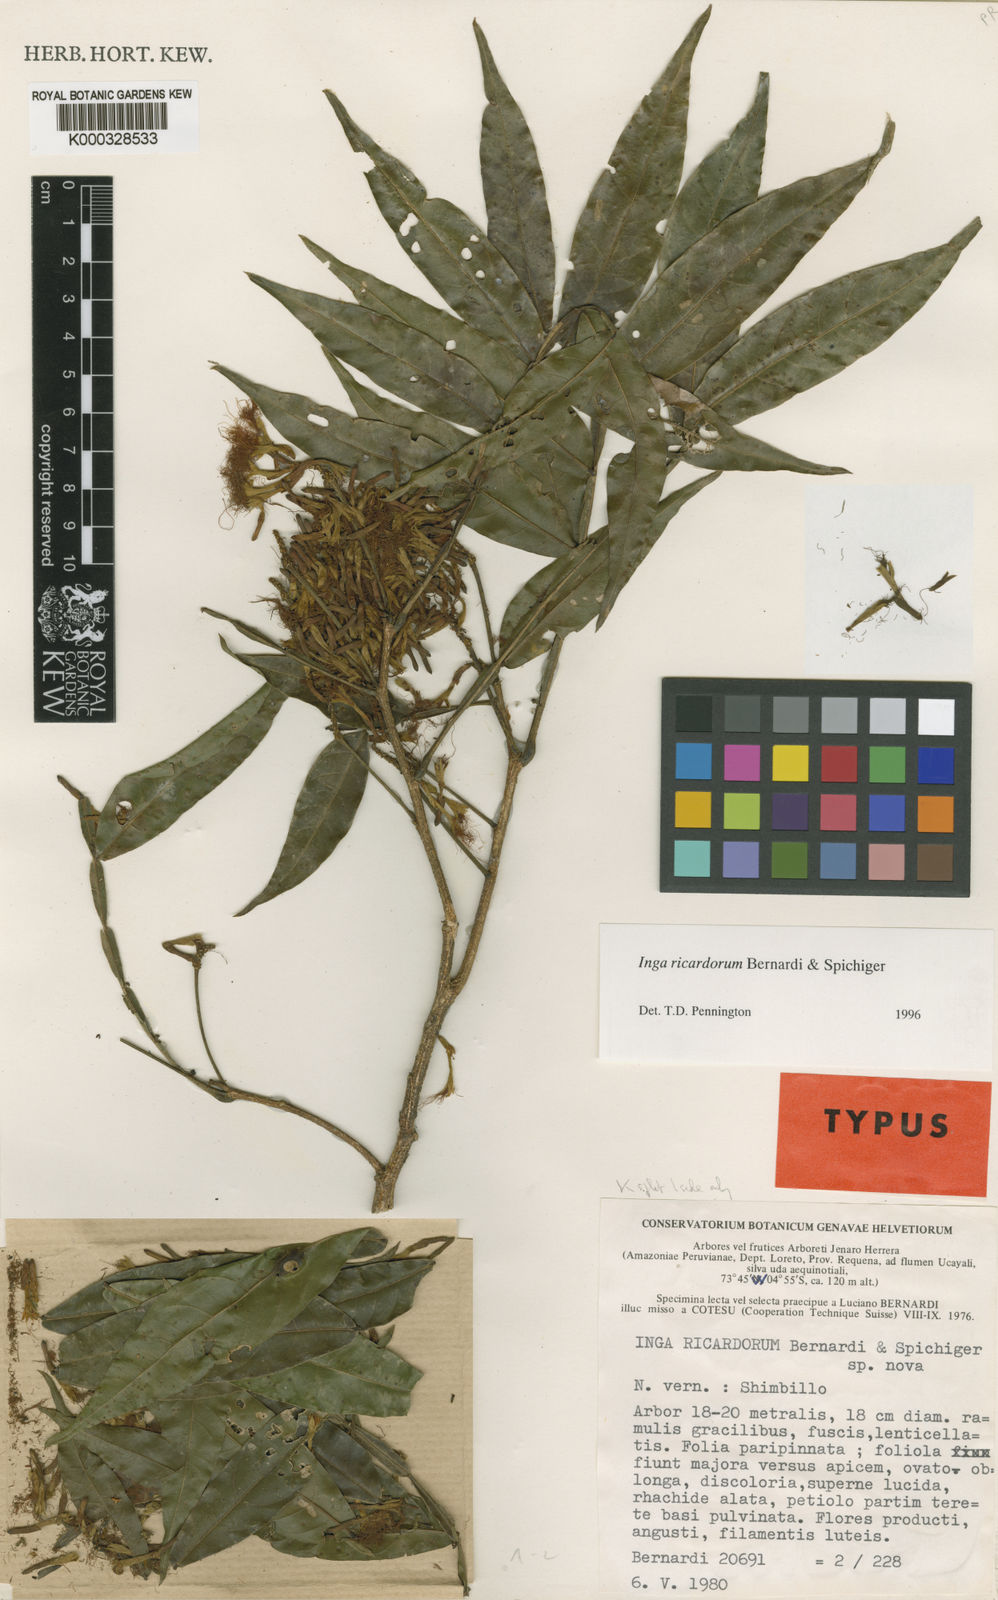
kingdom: Plantae
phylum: Tracheophyta
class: Magnoliopsida
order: Fabales
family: Fabaceae
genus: Inga
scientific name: Inga chrysantha
